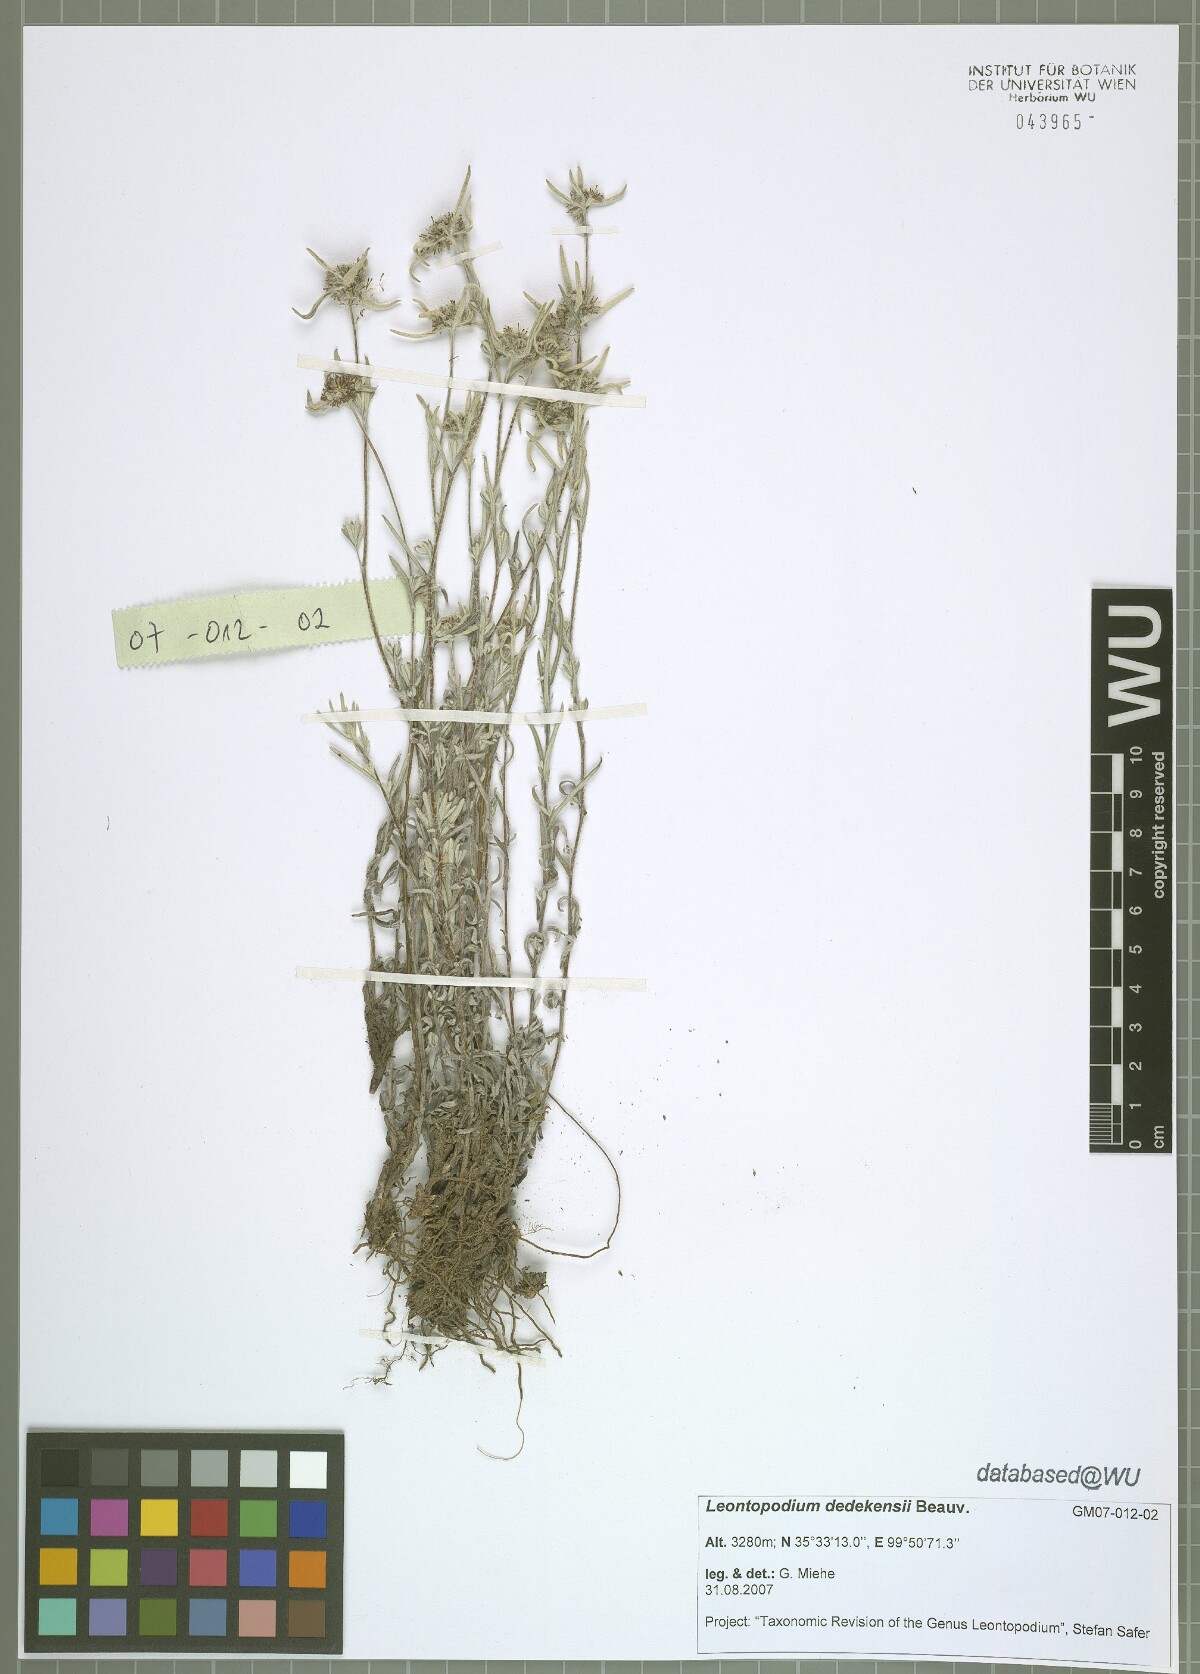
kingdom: Plantae
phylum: Tracheophyta
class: Magnoliopsida
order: Asterales
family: Asteraceae
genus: Leontopodium
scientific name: Leontopodium dedekensii
